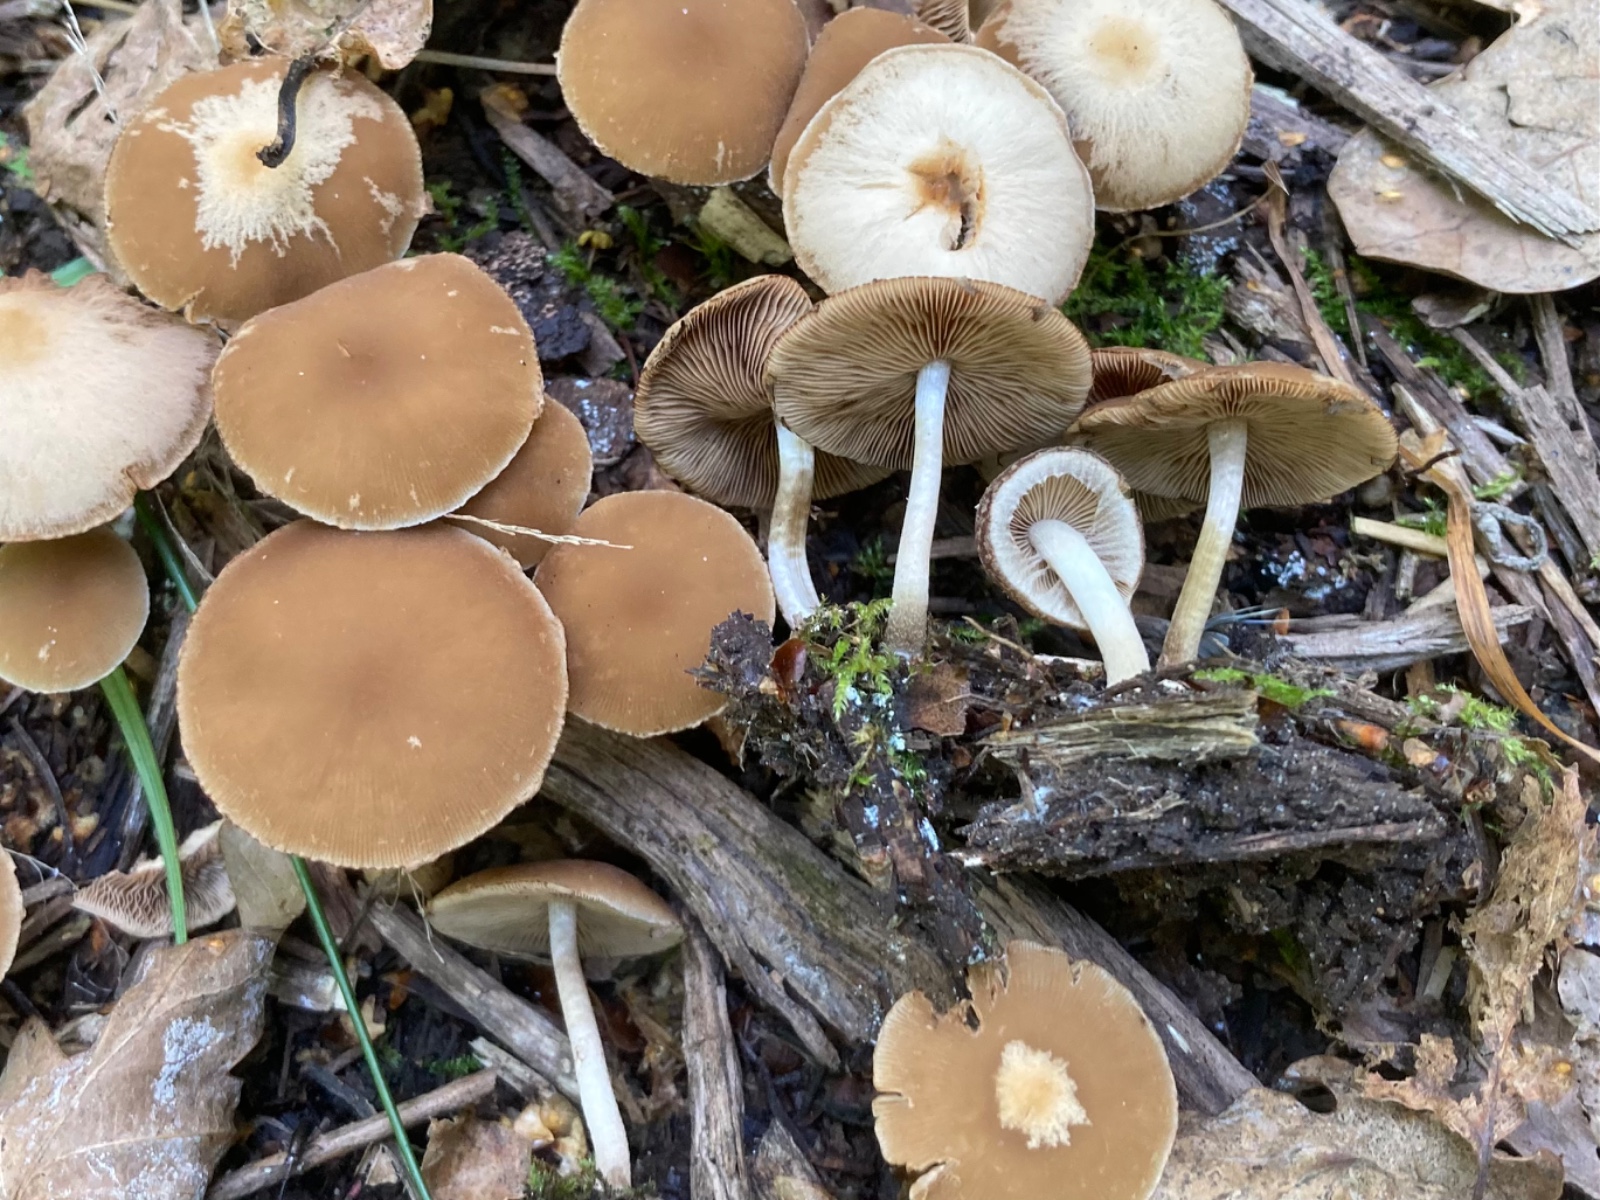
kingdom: Fungi
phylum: Basidiomycota
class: Agaricomycetes
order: Agaricales
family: Psathyrellaceae
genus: Psathyrella
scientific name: Psathyrella piluliformis
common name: lysstokket mørkhat
